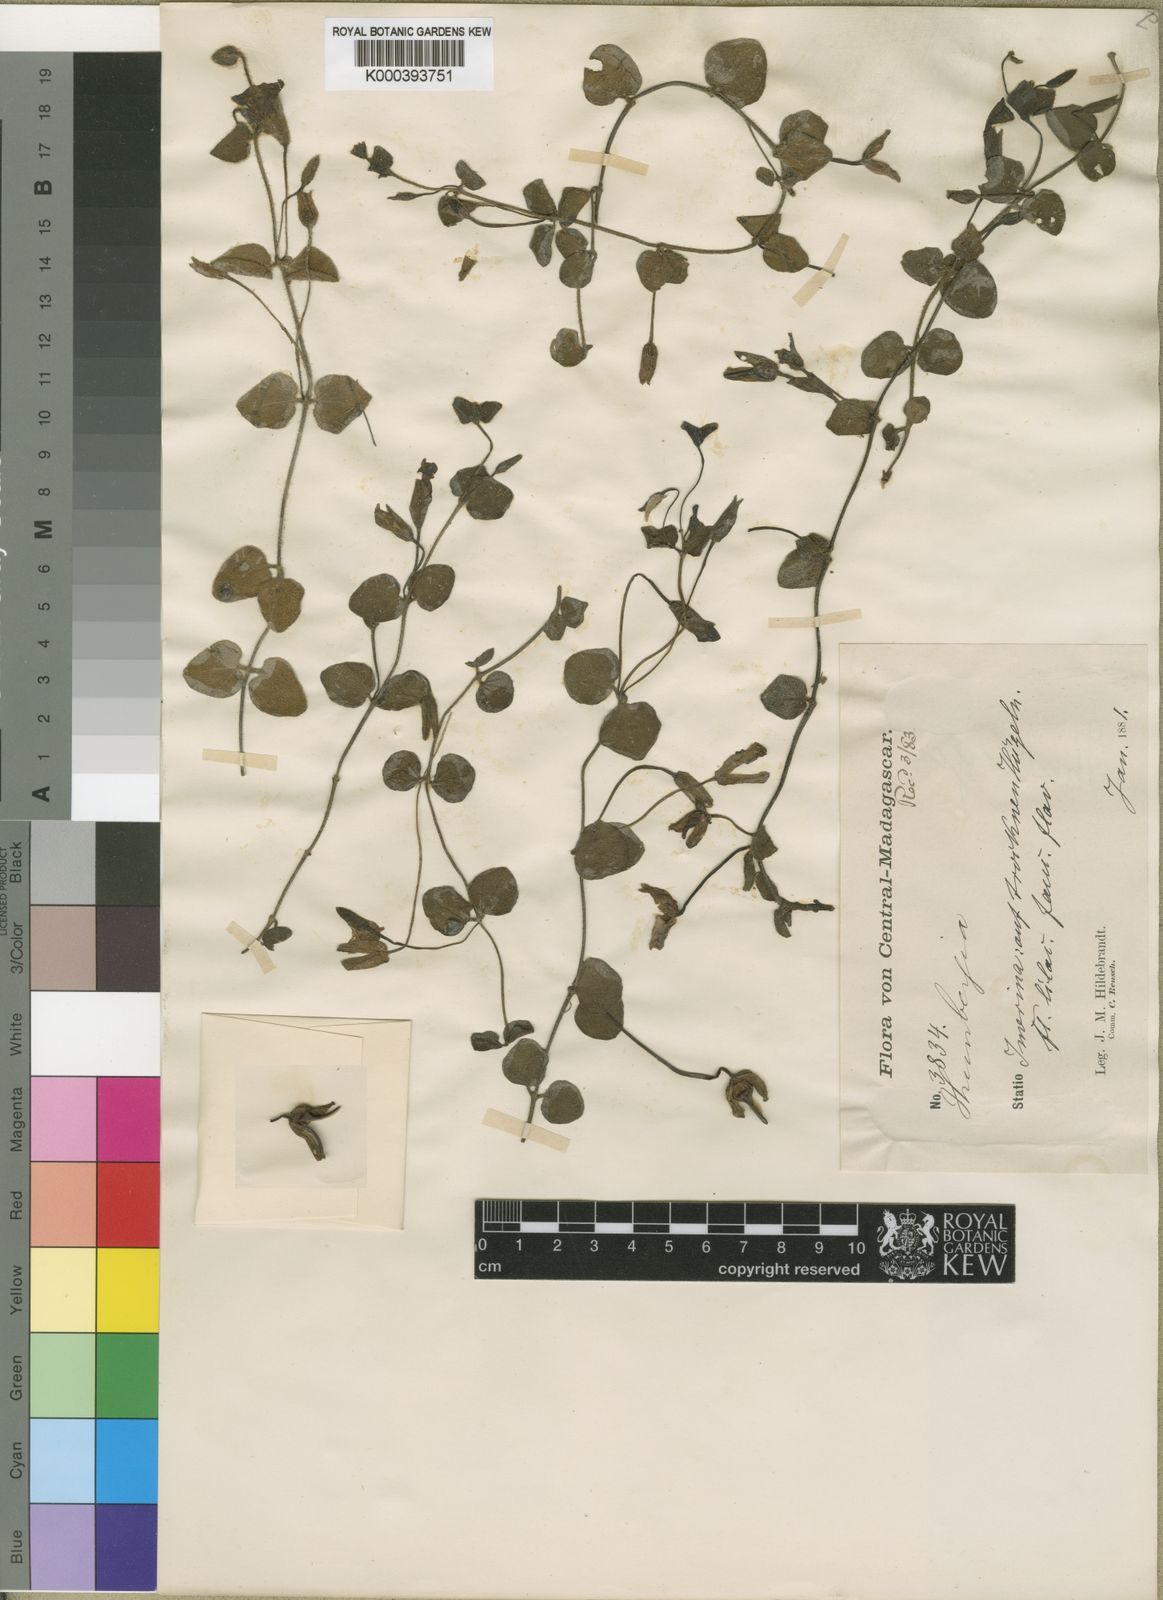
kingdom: Plantae
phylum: Tracheophyta
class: Magnoliopsida
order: Lamiales
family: Acanthaceae
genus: Thunbergia
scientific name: Thunbergia
